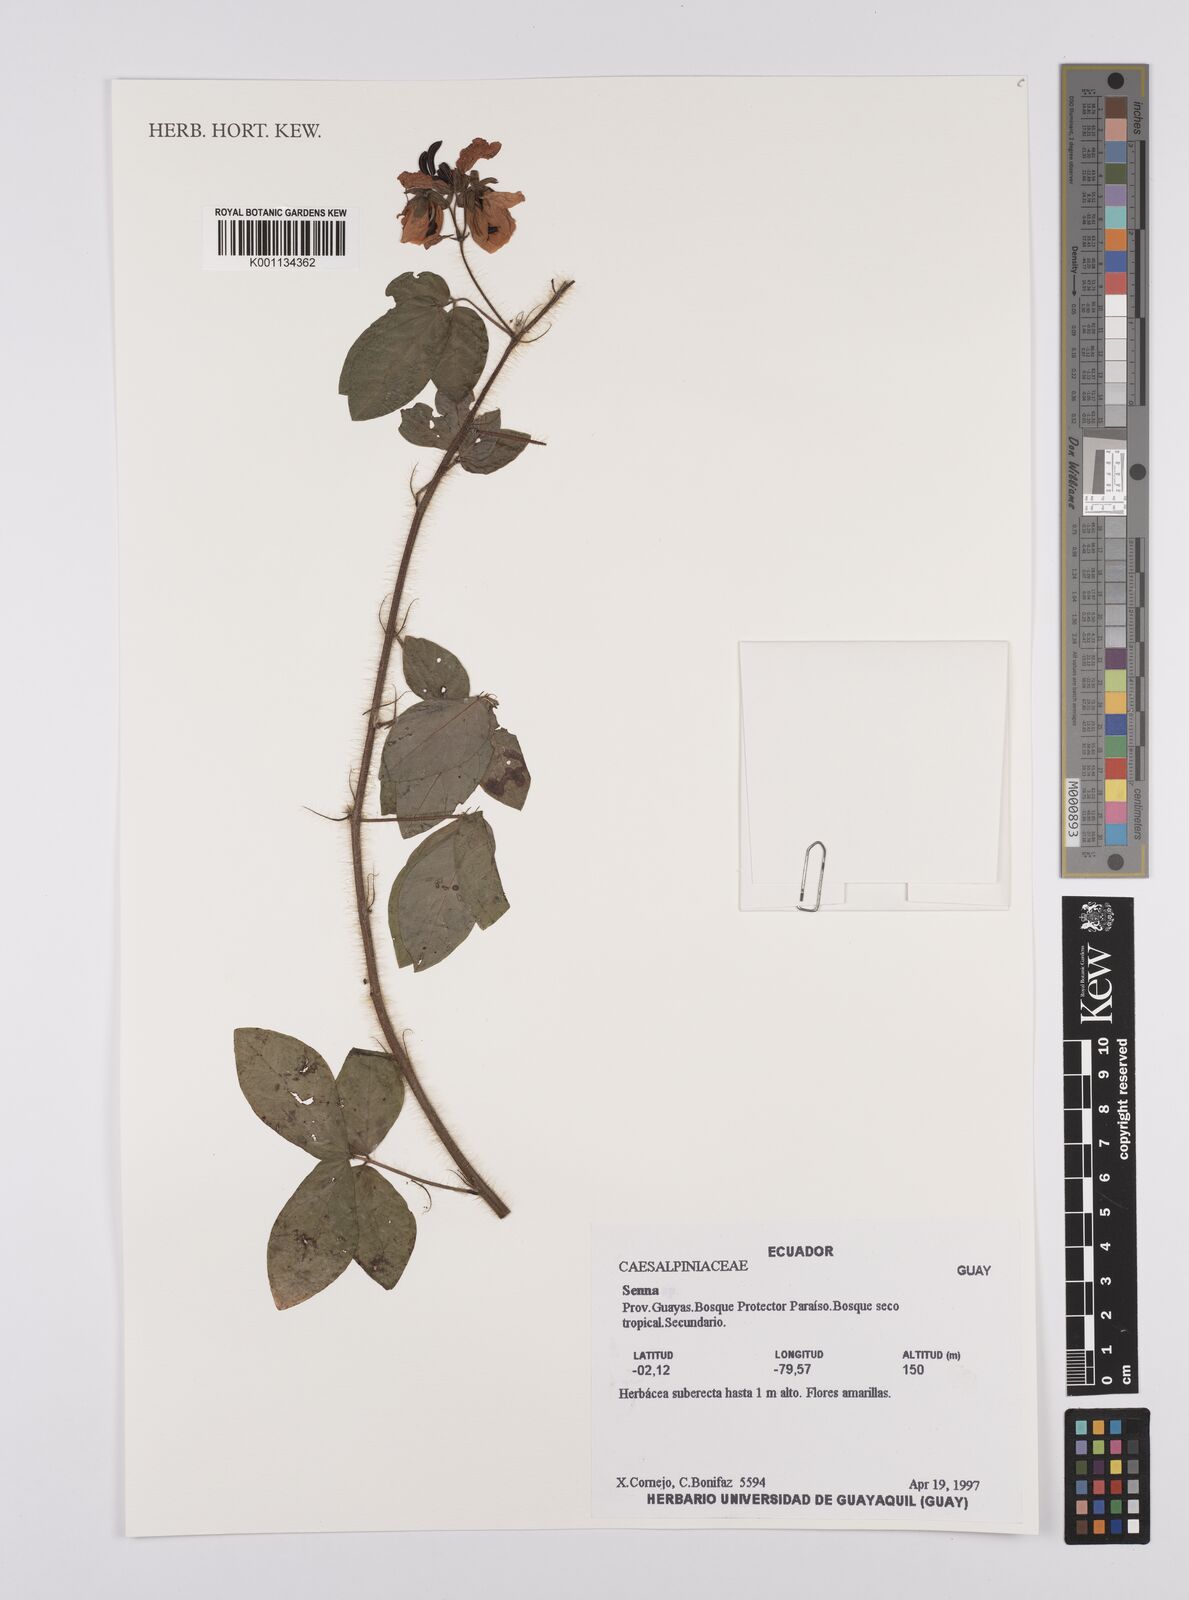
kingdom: Plantae
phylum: Tracheophyta
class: Magnoliopsida
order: Fabales
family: Fabaceae
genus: Senna
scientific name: Senna
